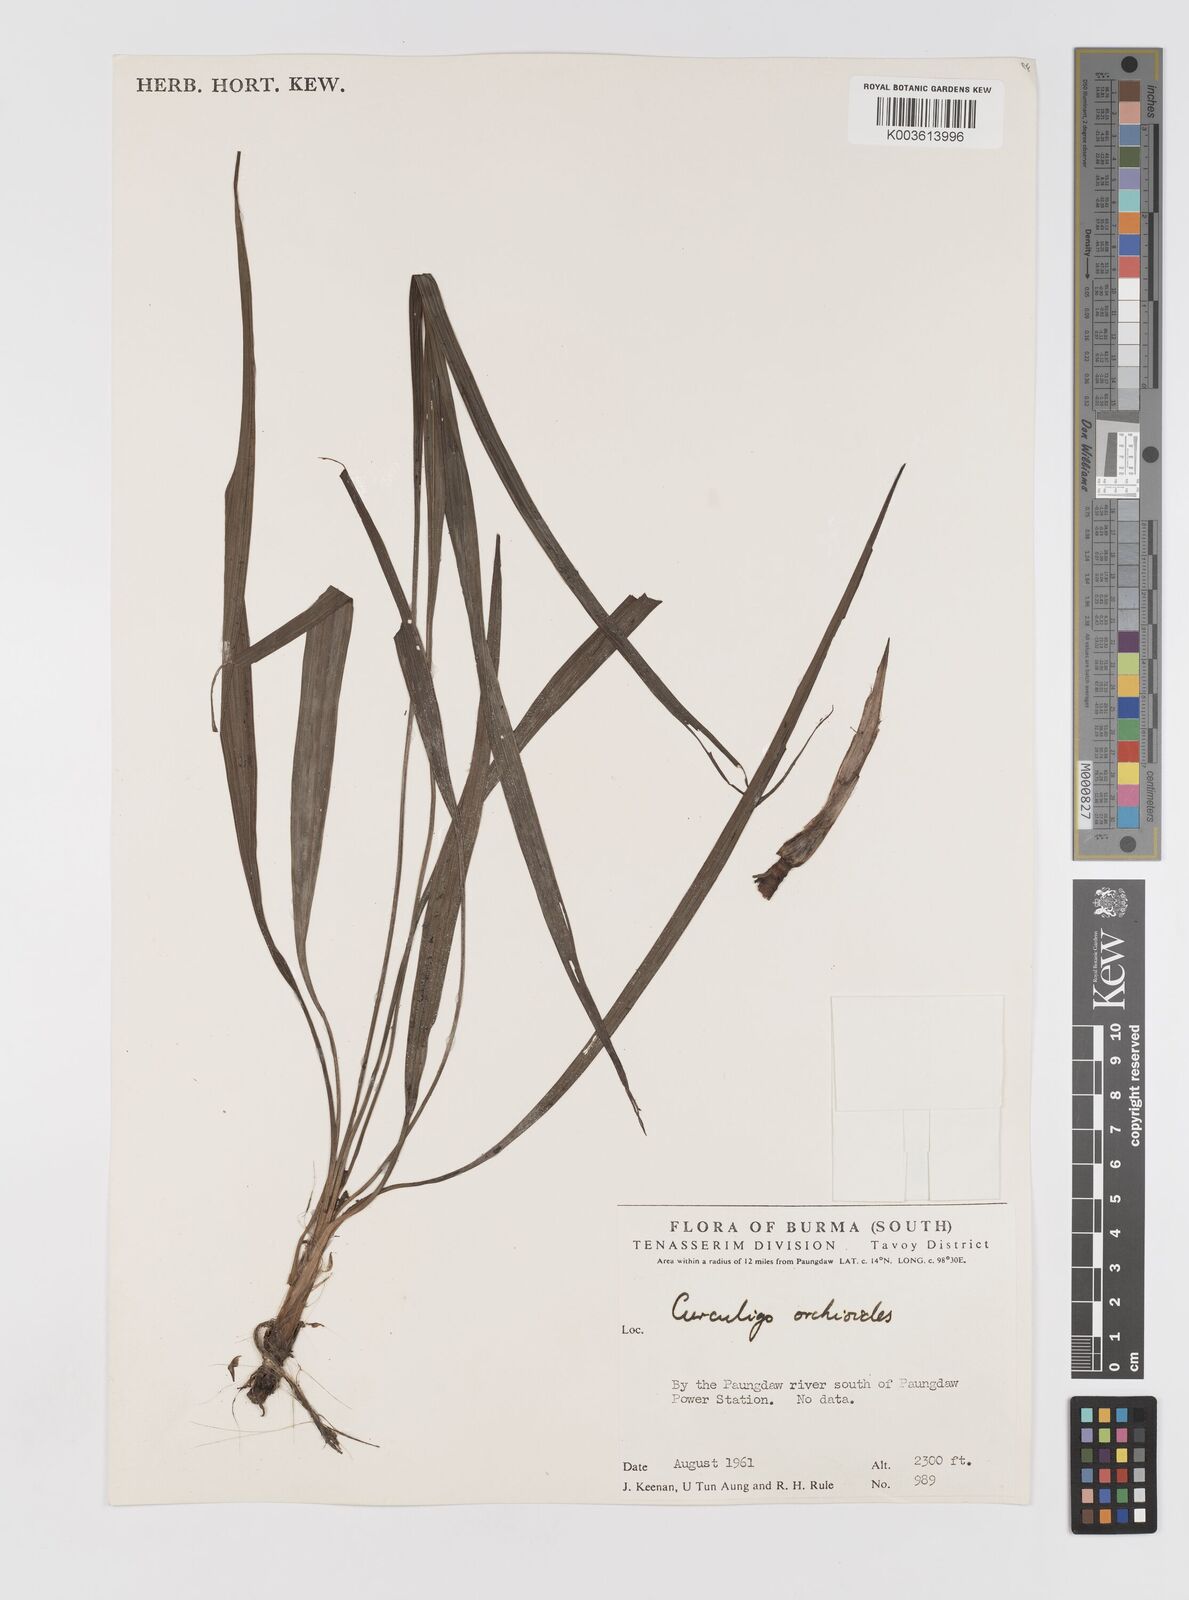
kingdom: Plantae
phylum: Tracheophyta
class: Liliopsida
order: Asparagales
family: Hypoxidaceae
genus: Curculigo
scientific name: Curculigo orchioides
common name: Golden eye-grass
